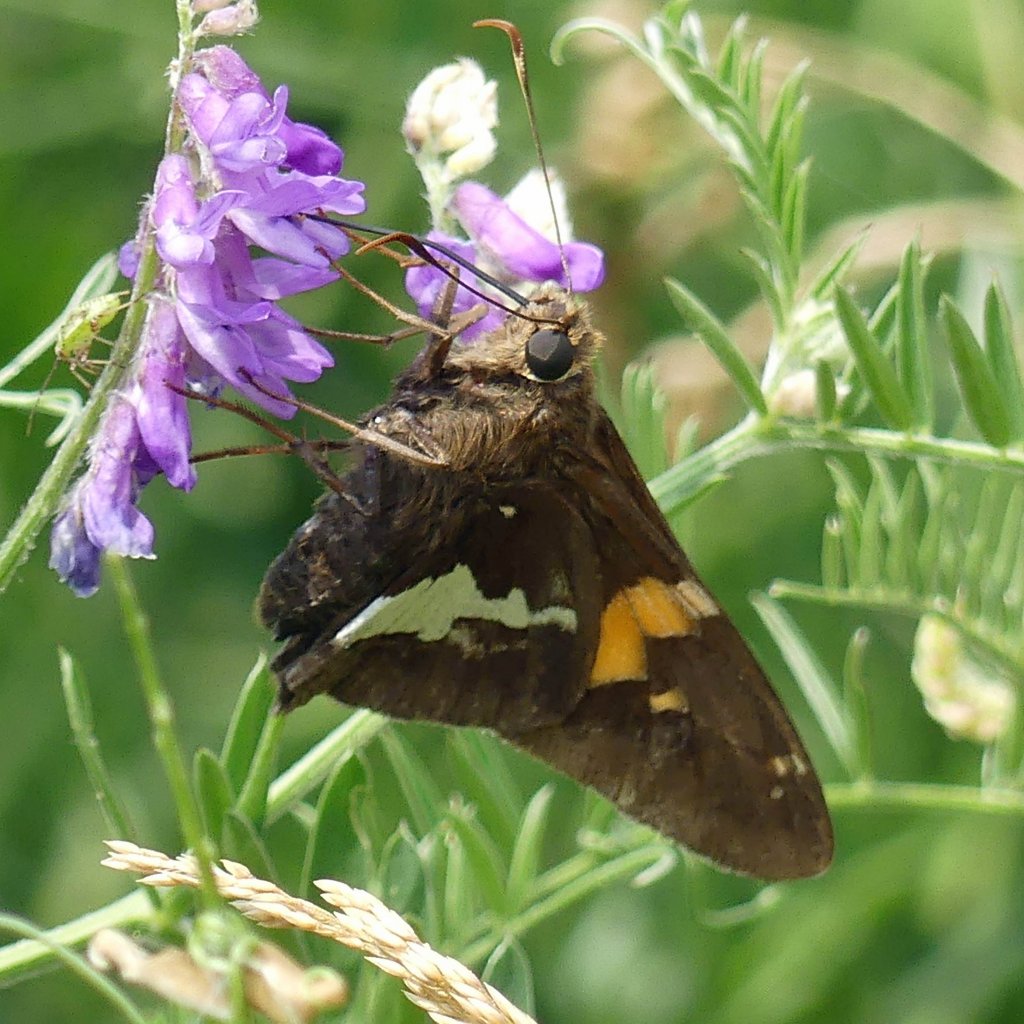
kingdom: Animalia
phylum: Arthropoda
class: Insecta
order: Lepidoptera
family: Hesperiidae
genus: Epargyreus
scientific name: Epargyreus clarus
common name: Silver-spotted Skipper
